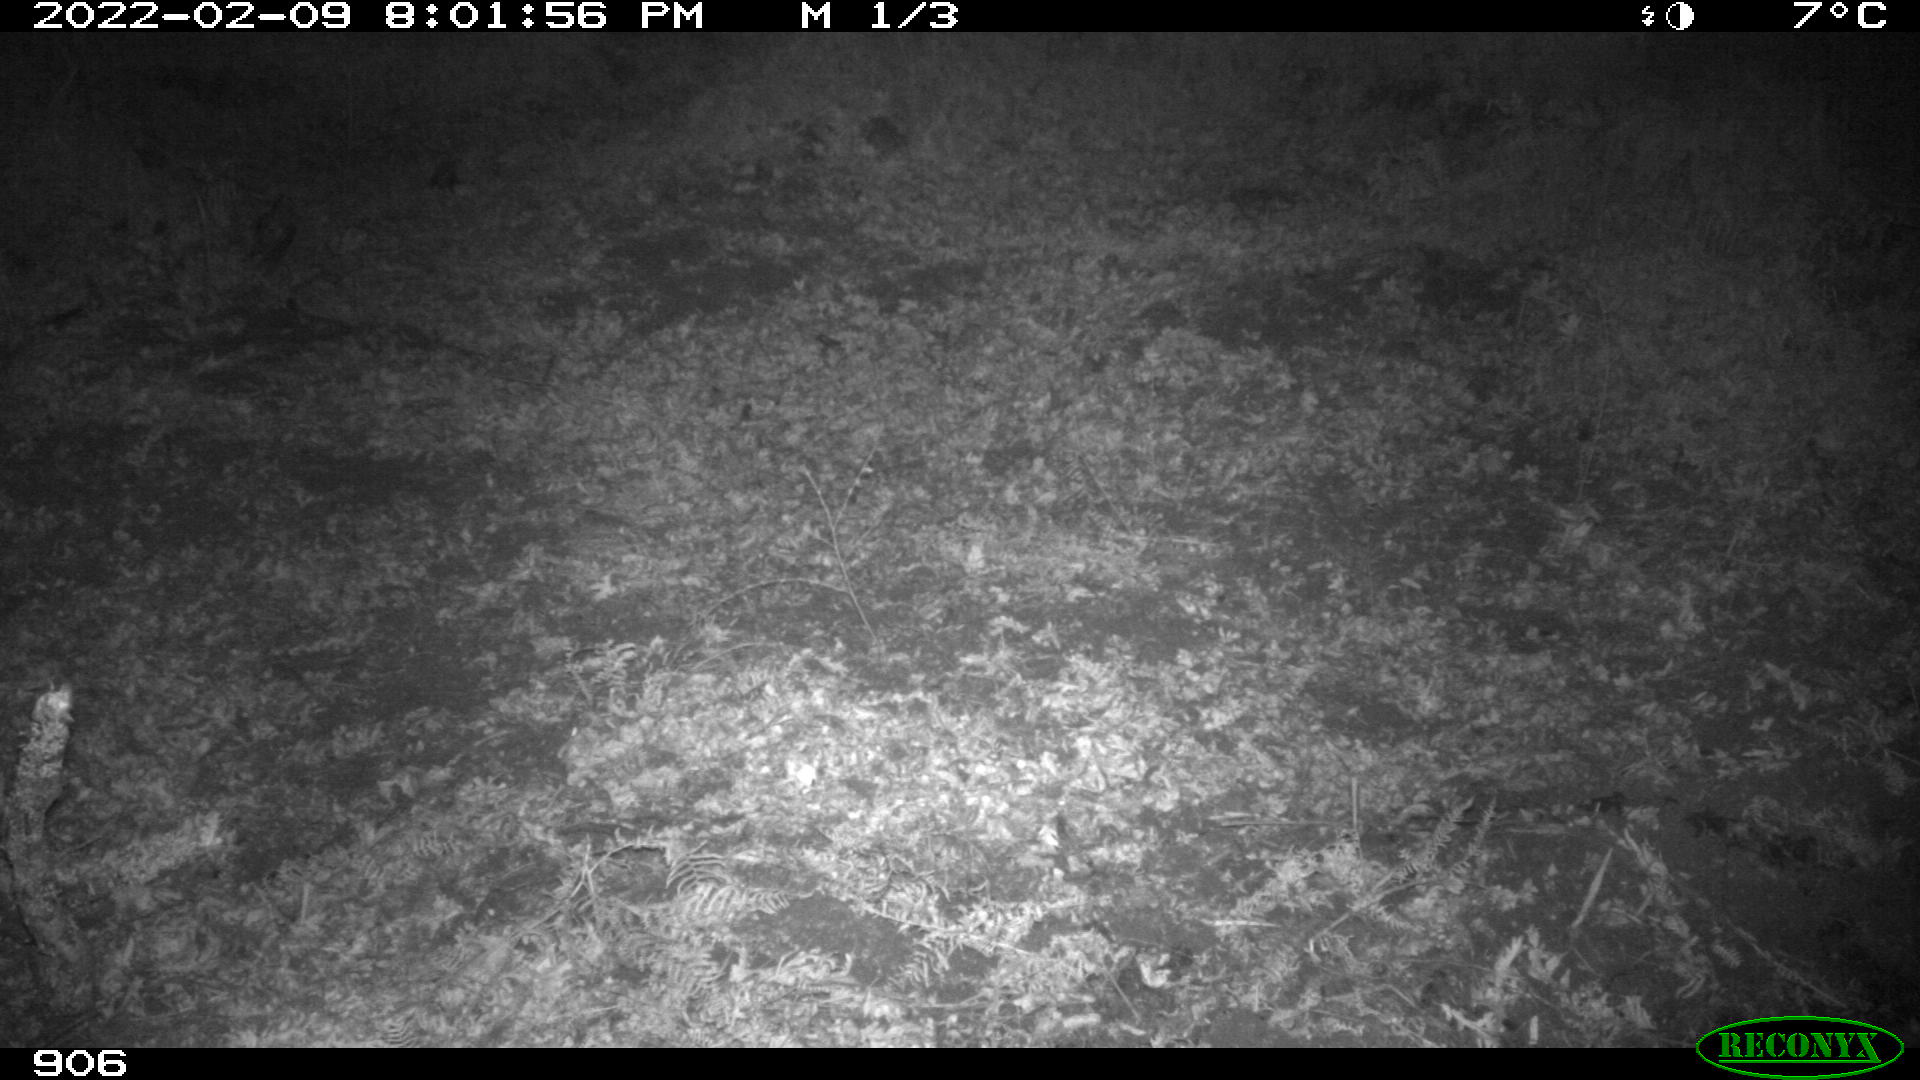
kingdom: Animalia
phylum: Chordata
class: Mammalia
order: Artiodactyla
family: Suidae
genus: Sus
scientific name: Sus scrofa
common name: Wild boar
